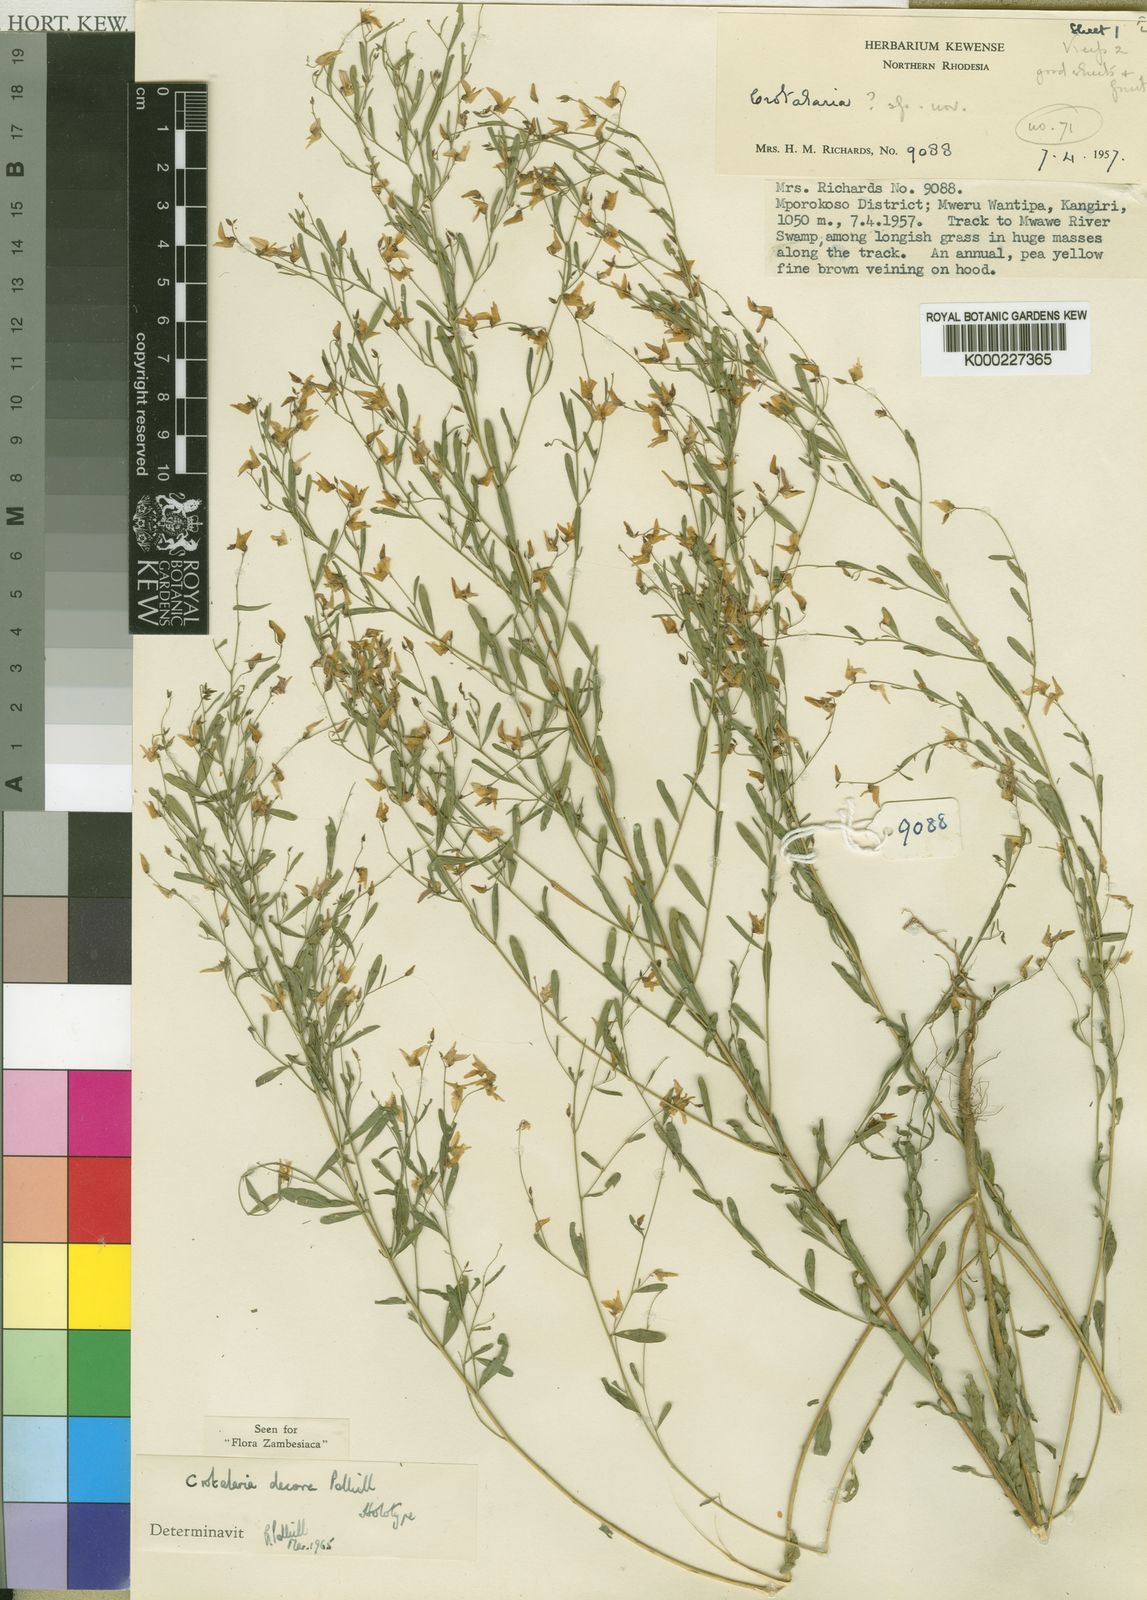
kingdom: Plantae
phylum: Tracheophyta
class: Magnoliopsida
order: Fabales
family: Fabaceae
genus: Crotalaria
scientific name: Crotalaria decora
